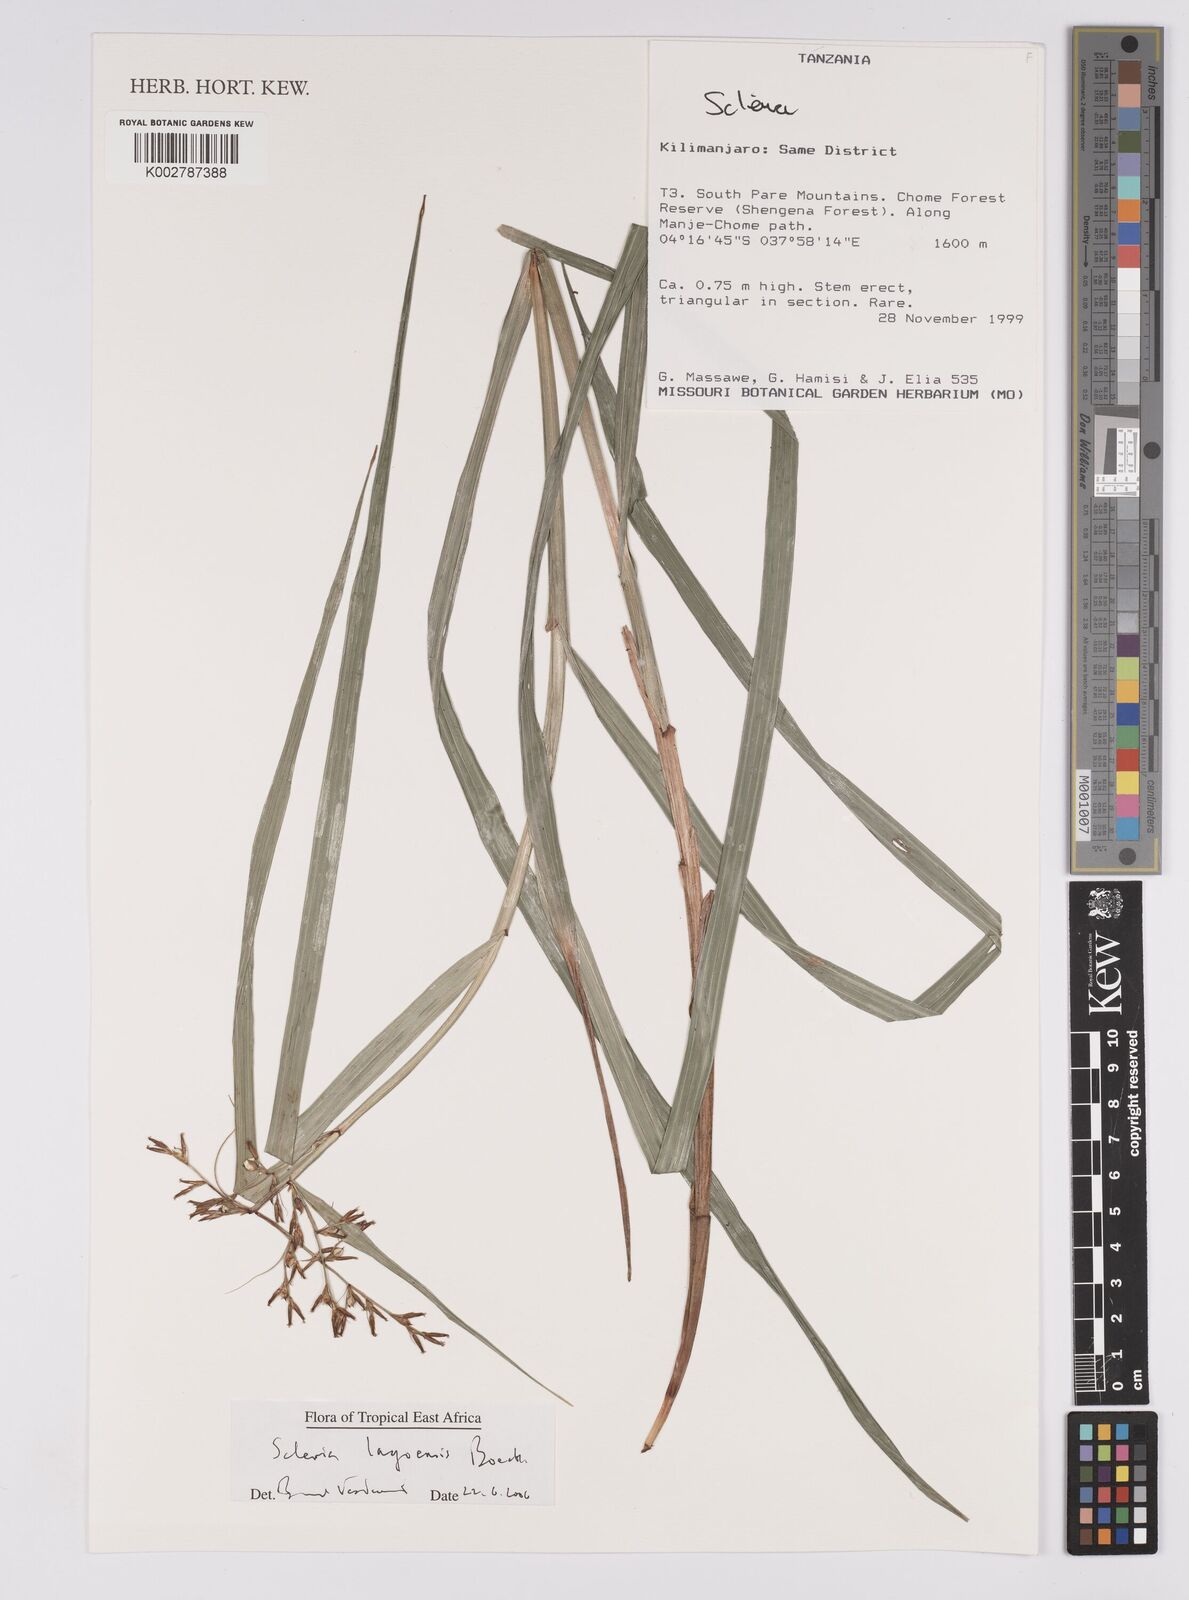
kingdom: Plantae
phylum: Tracheophyta
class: Liliopsida
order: Poales
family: Cyperaceae
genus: Scleria
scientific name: Scleria lagoensis
